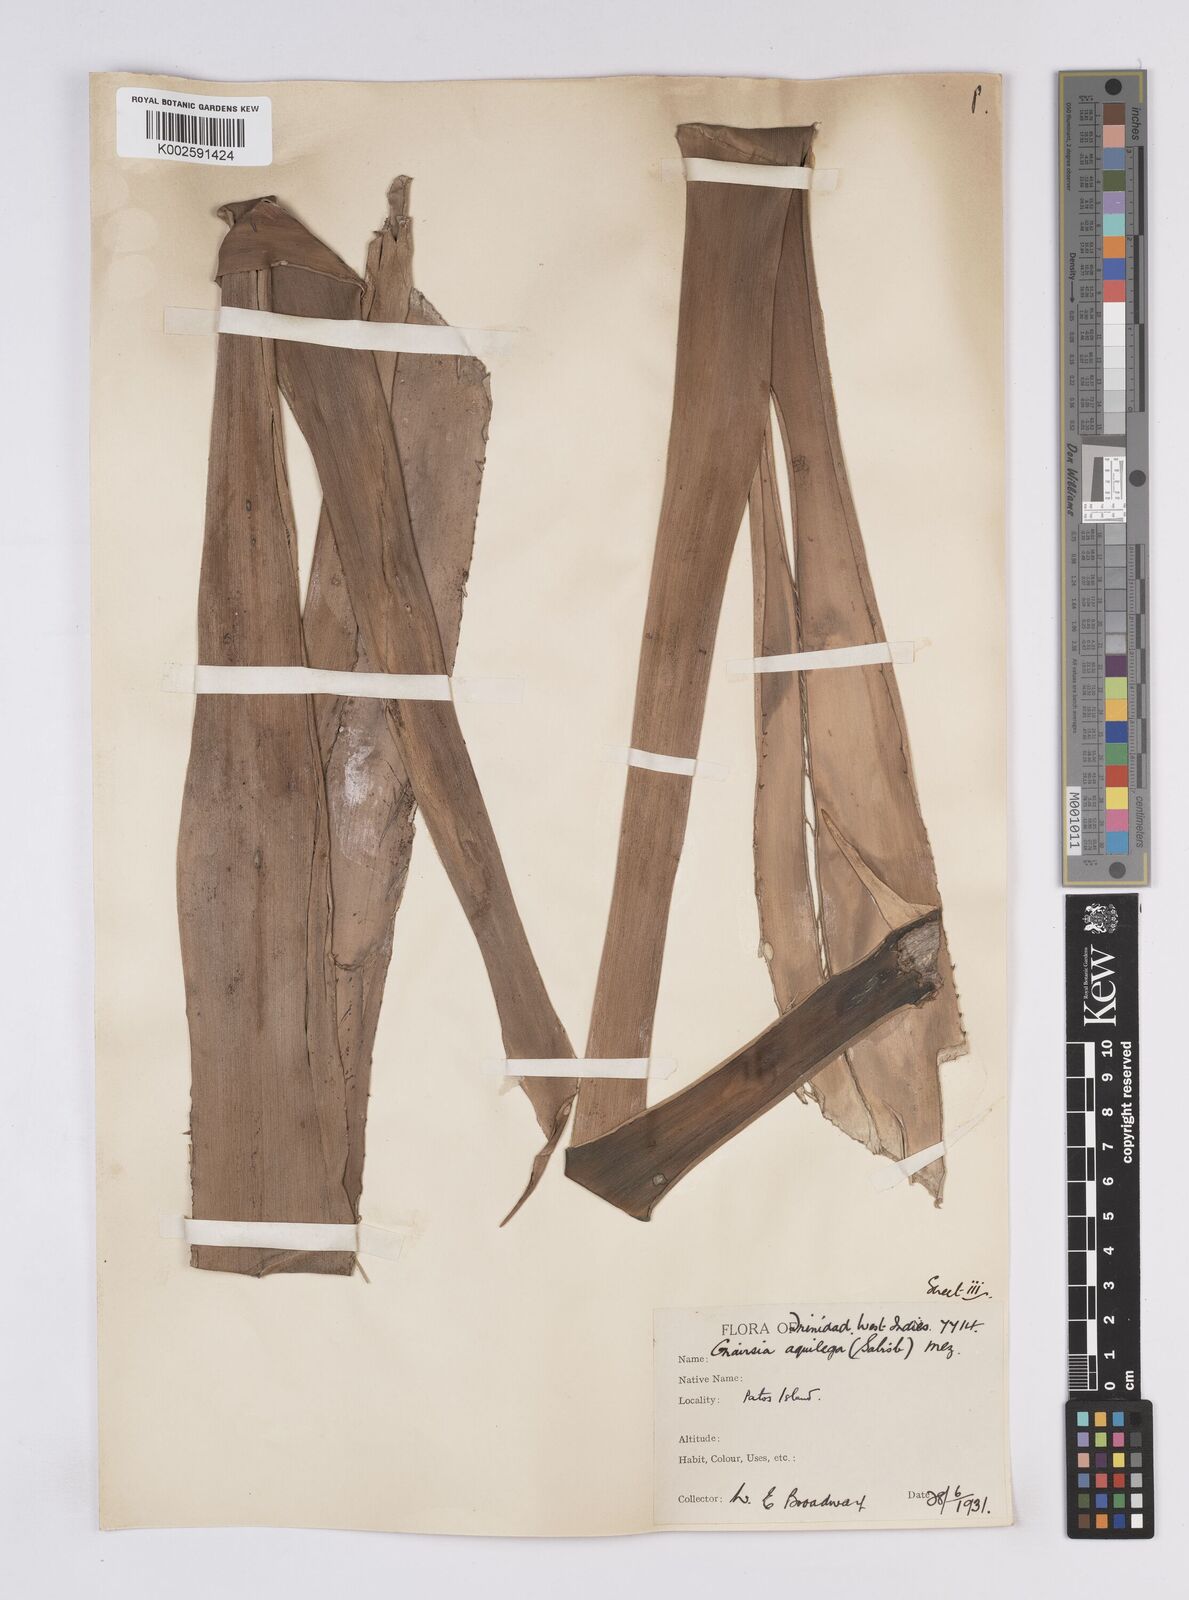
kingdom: Plantae
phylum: Tracheophyta
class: Liliopsida
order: Poales
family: Bromeliaceae
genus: Aechmea
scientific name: Aechmea aquilega
